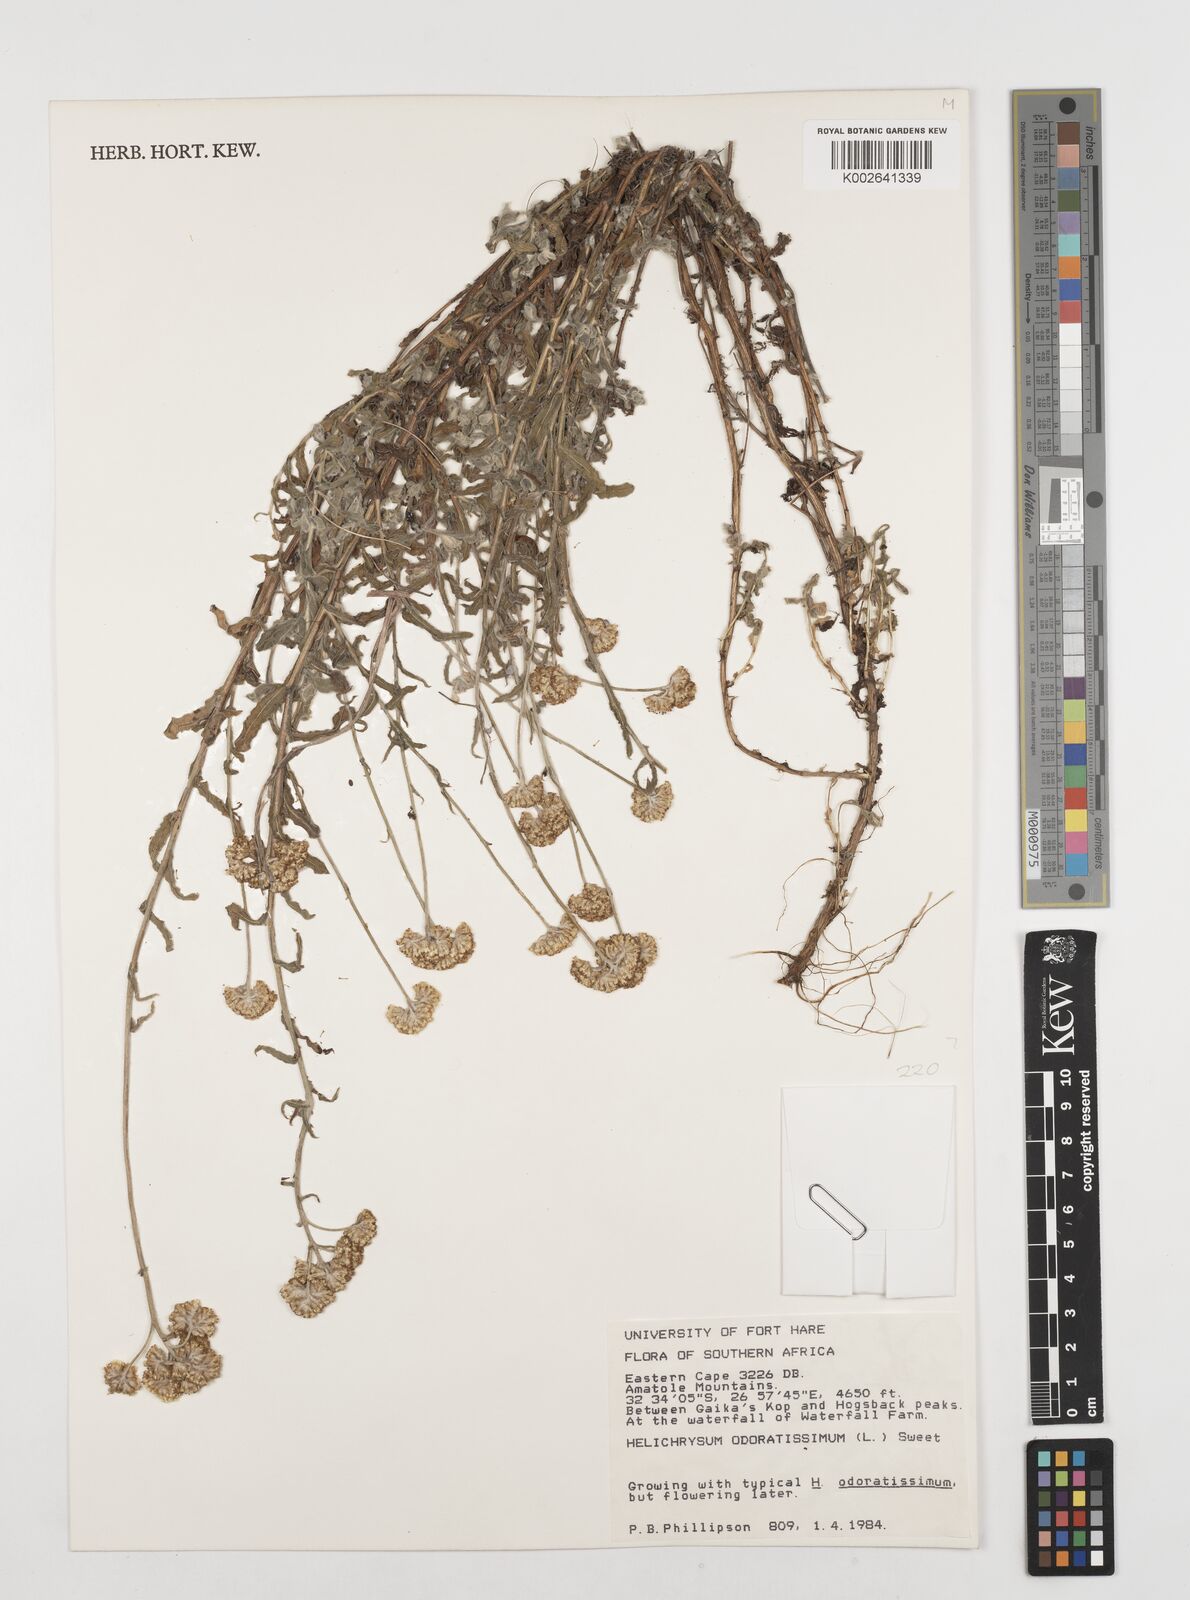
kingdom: Plantae
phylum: Tracheophyta
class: Magnoliopsida
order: Asterales
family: Asteraceae
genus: Helichrysum
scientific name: Helichrysum odoratissimum
